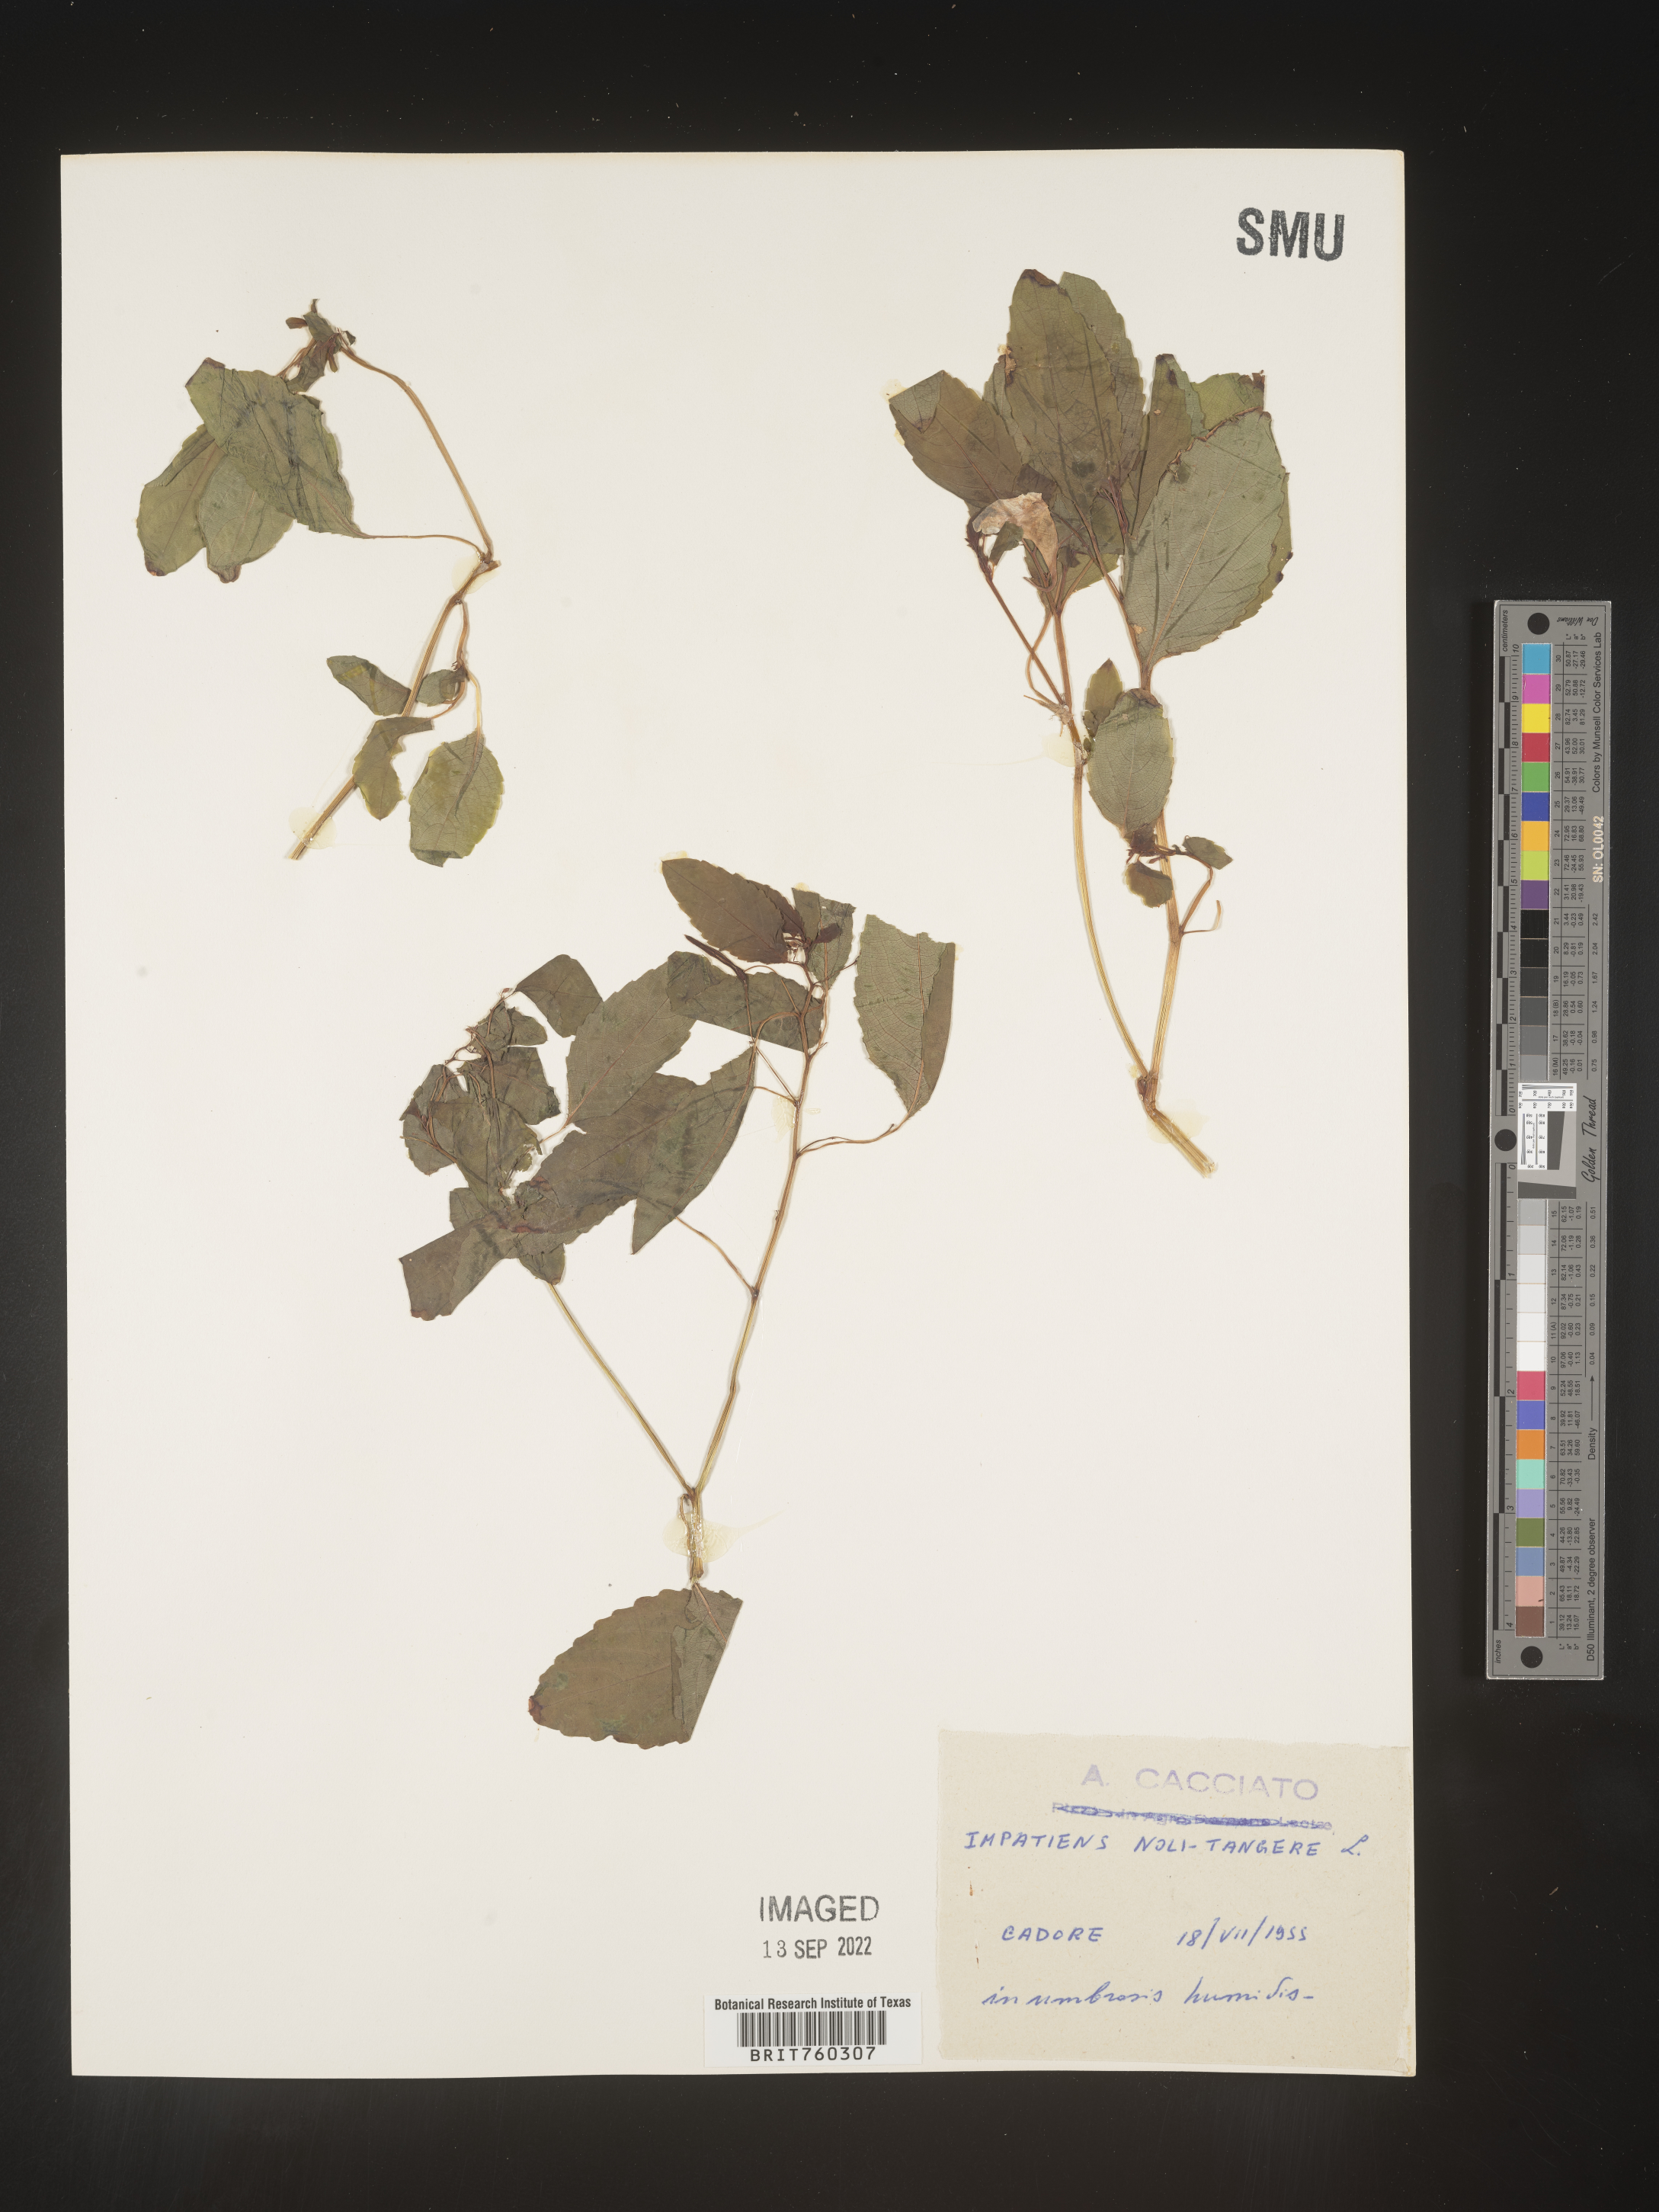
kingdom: Plantae
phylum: Tracheophyta
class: Magnoliopsida
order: Ericales
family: Balsaminaceae
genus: Impatiens
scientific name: Impatiens
